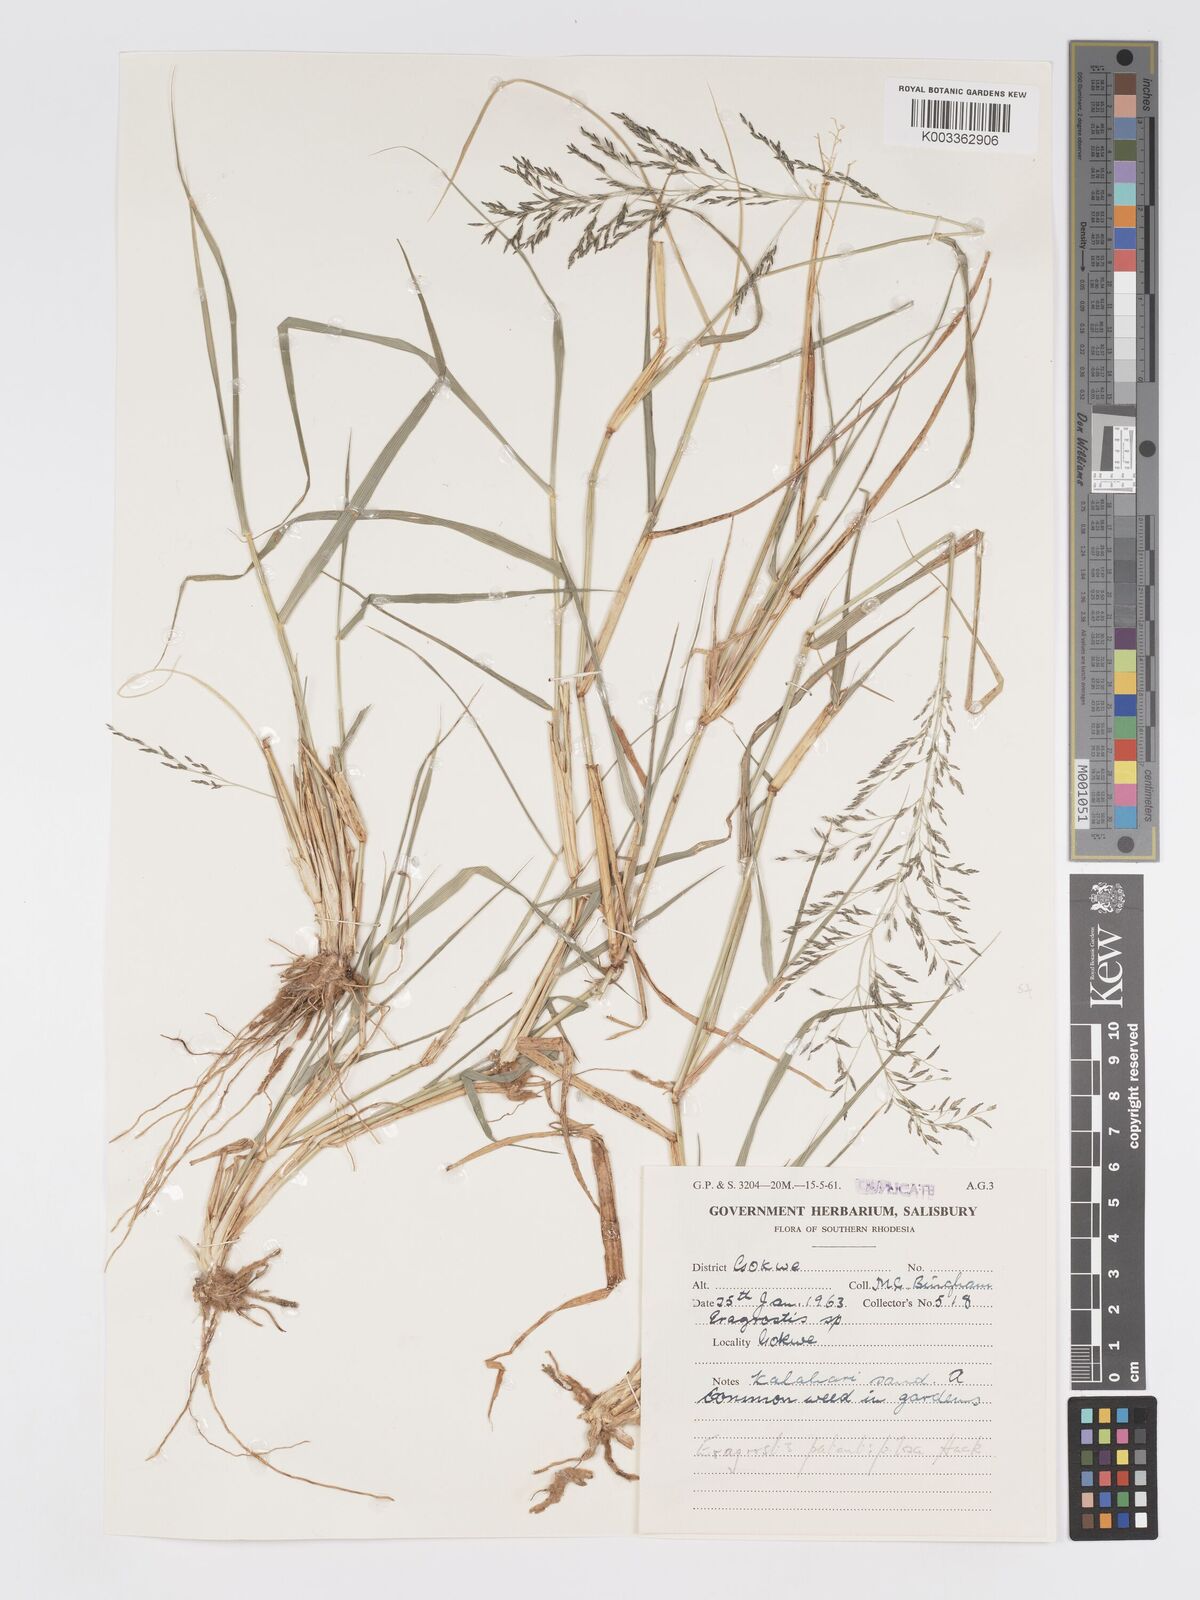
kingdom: Plantae
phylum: Tracheophyta
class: Liliopsida
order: Poales
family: Poaceae
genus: Eragrostis
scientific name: Eragrostis cylindriflora
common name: Cylinderflower lovegrass
